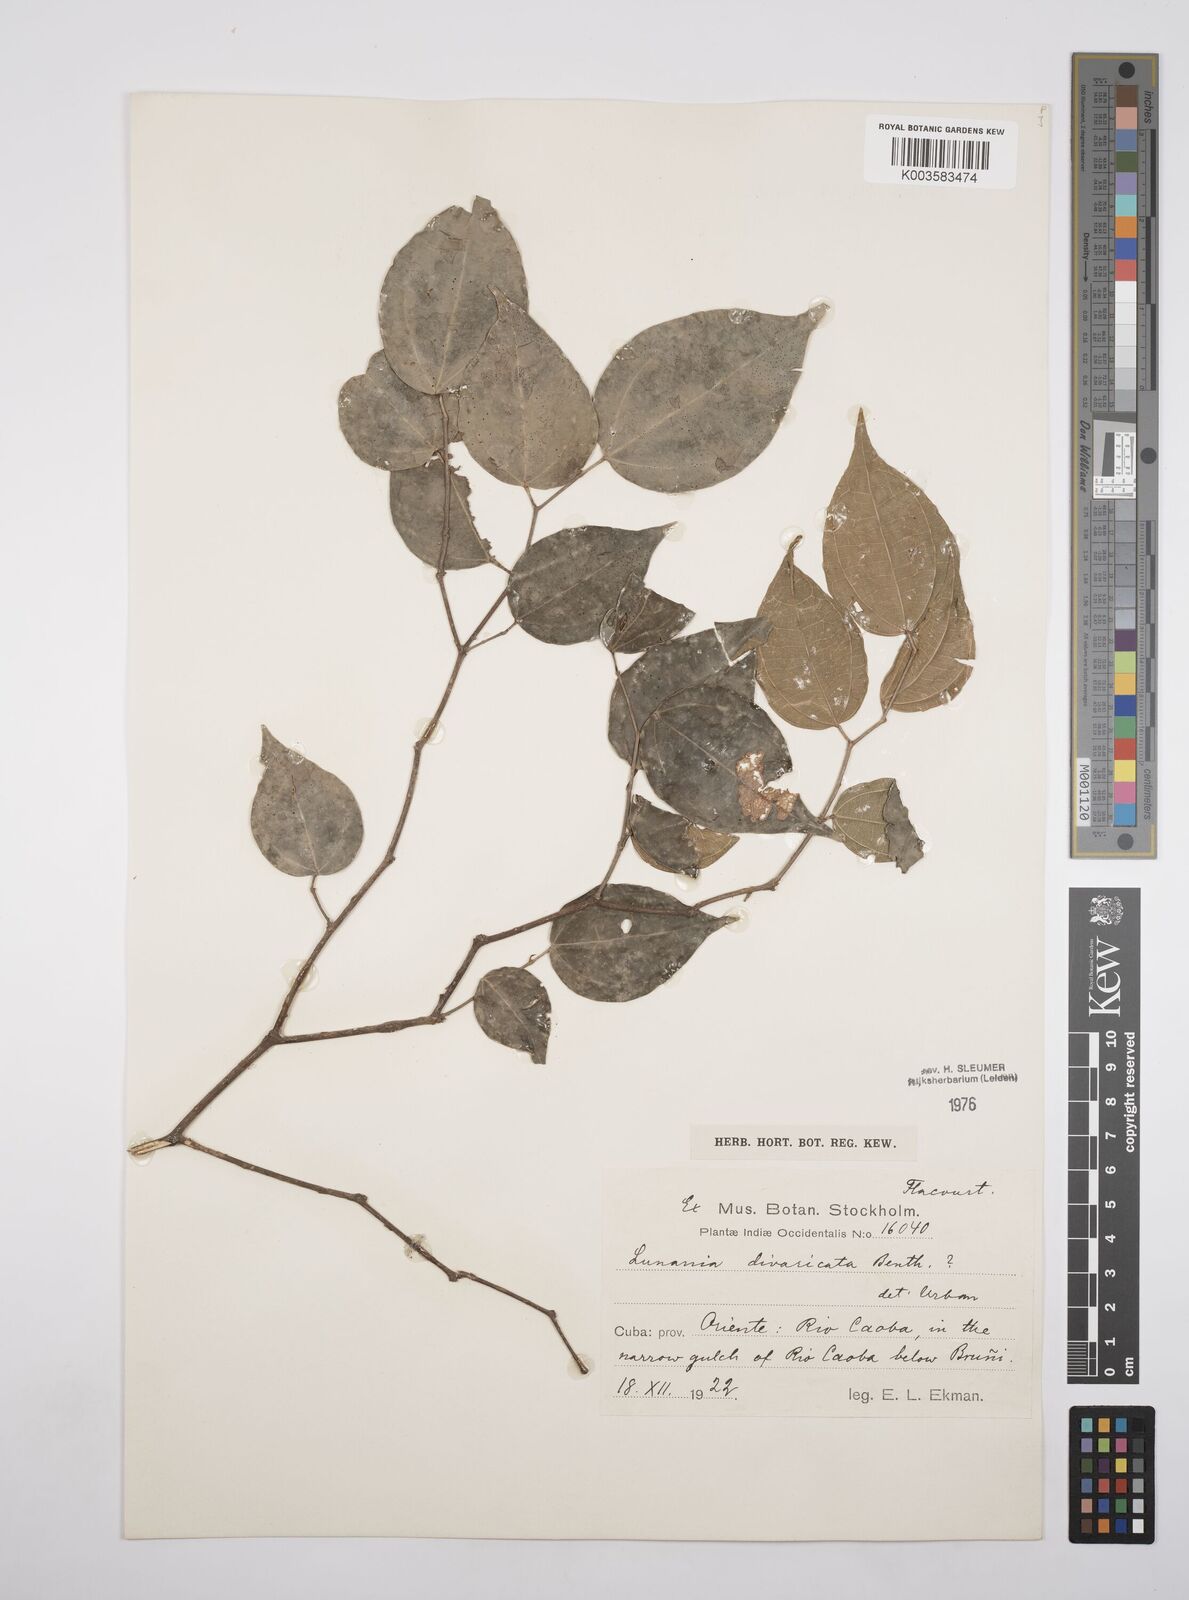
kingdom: Plantae
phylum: Tracheophyta
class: Magnoliopsida
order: Malpighiales
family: Salicaceae
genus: Lunania
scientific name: Lunania divaricata
